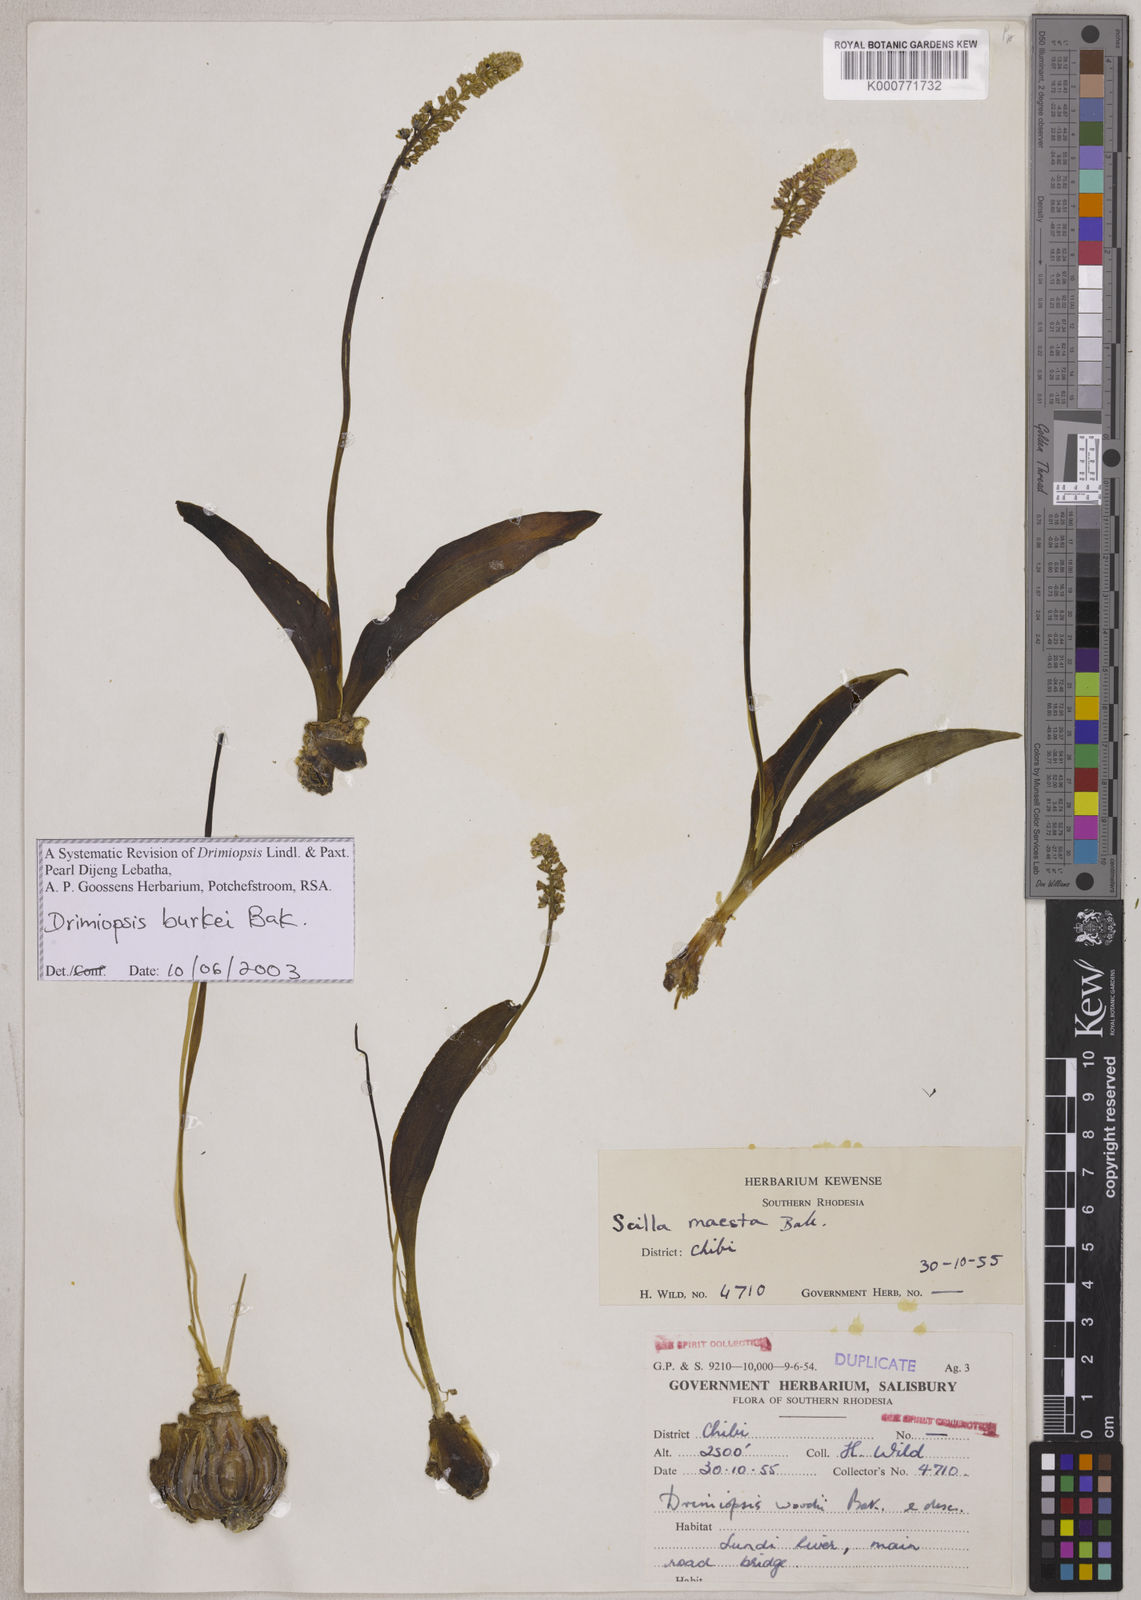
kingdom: Plantae
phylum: Tracheophyta
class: Liliopsida
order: Asparagales
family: Asparagaceae
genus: Drimiopsis
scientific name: Drimiopsis burkei
